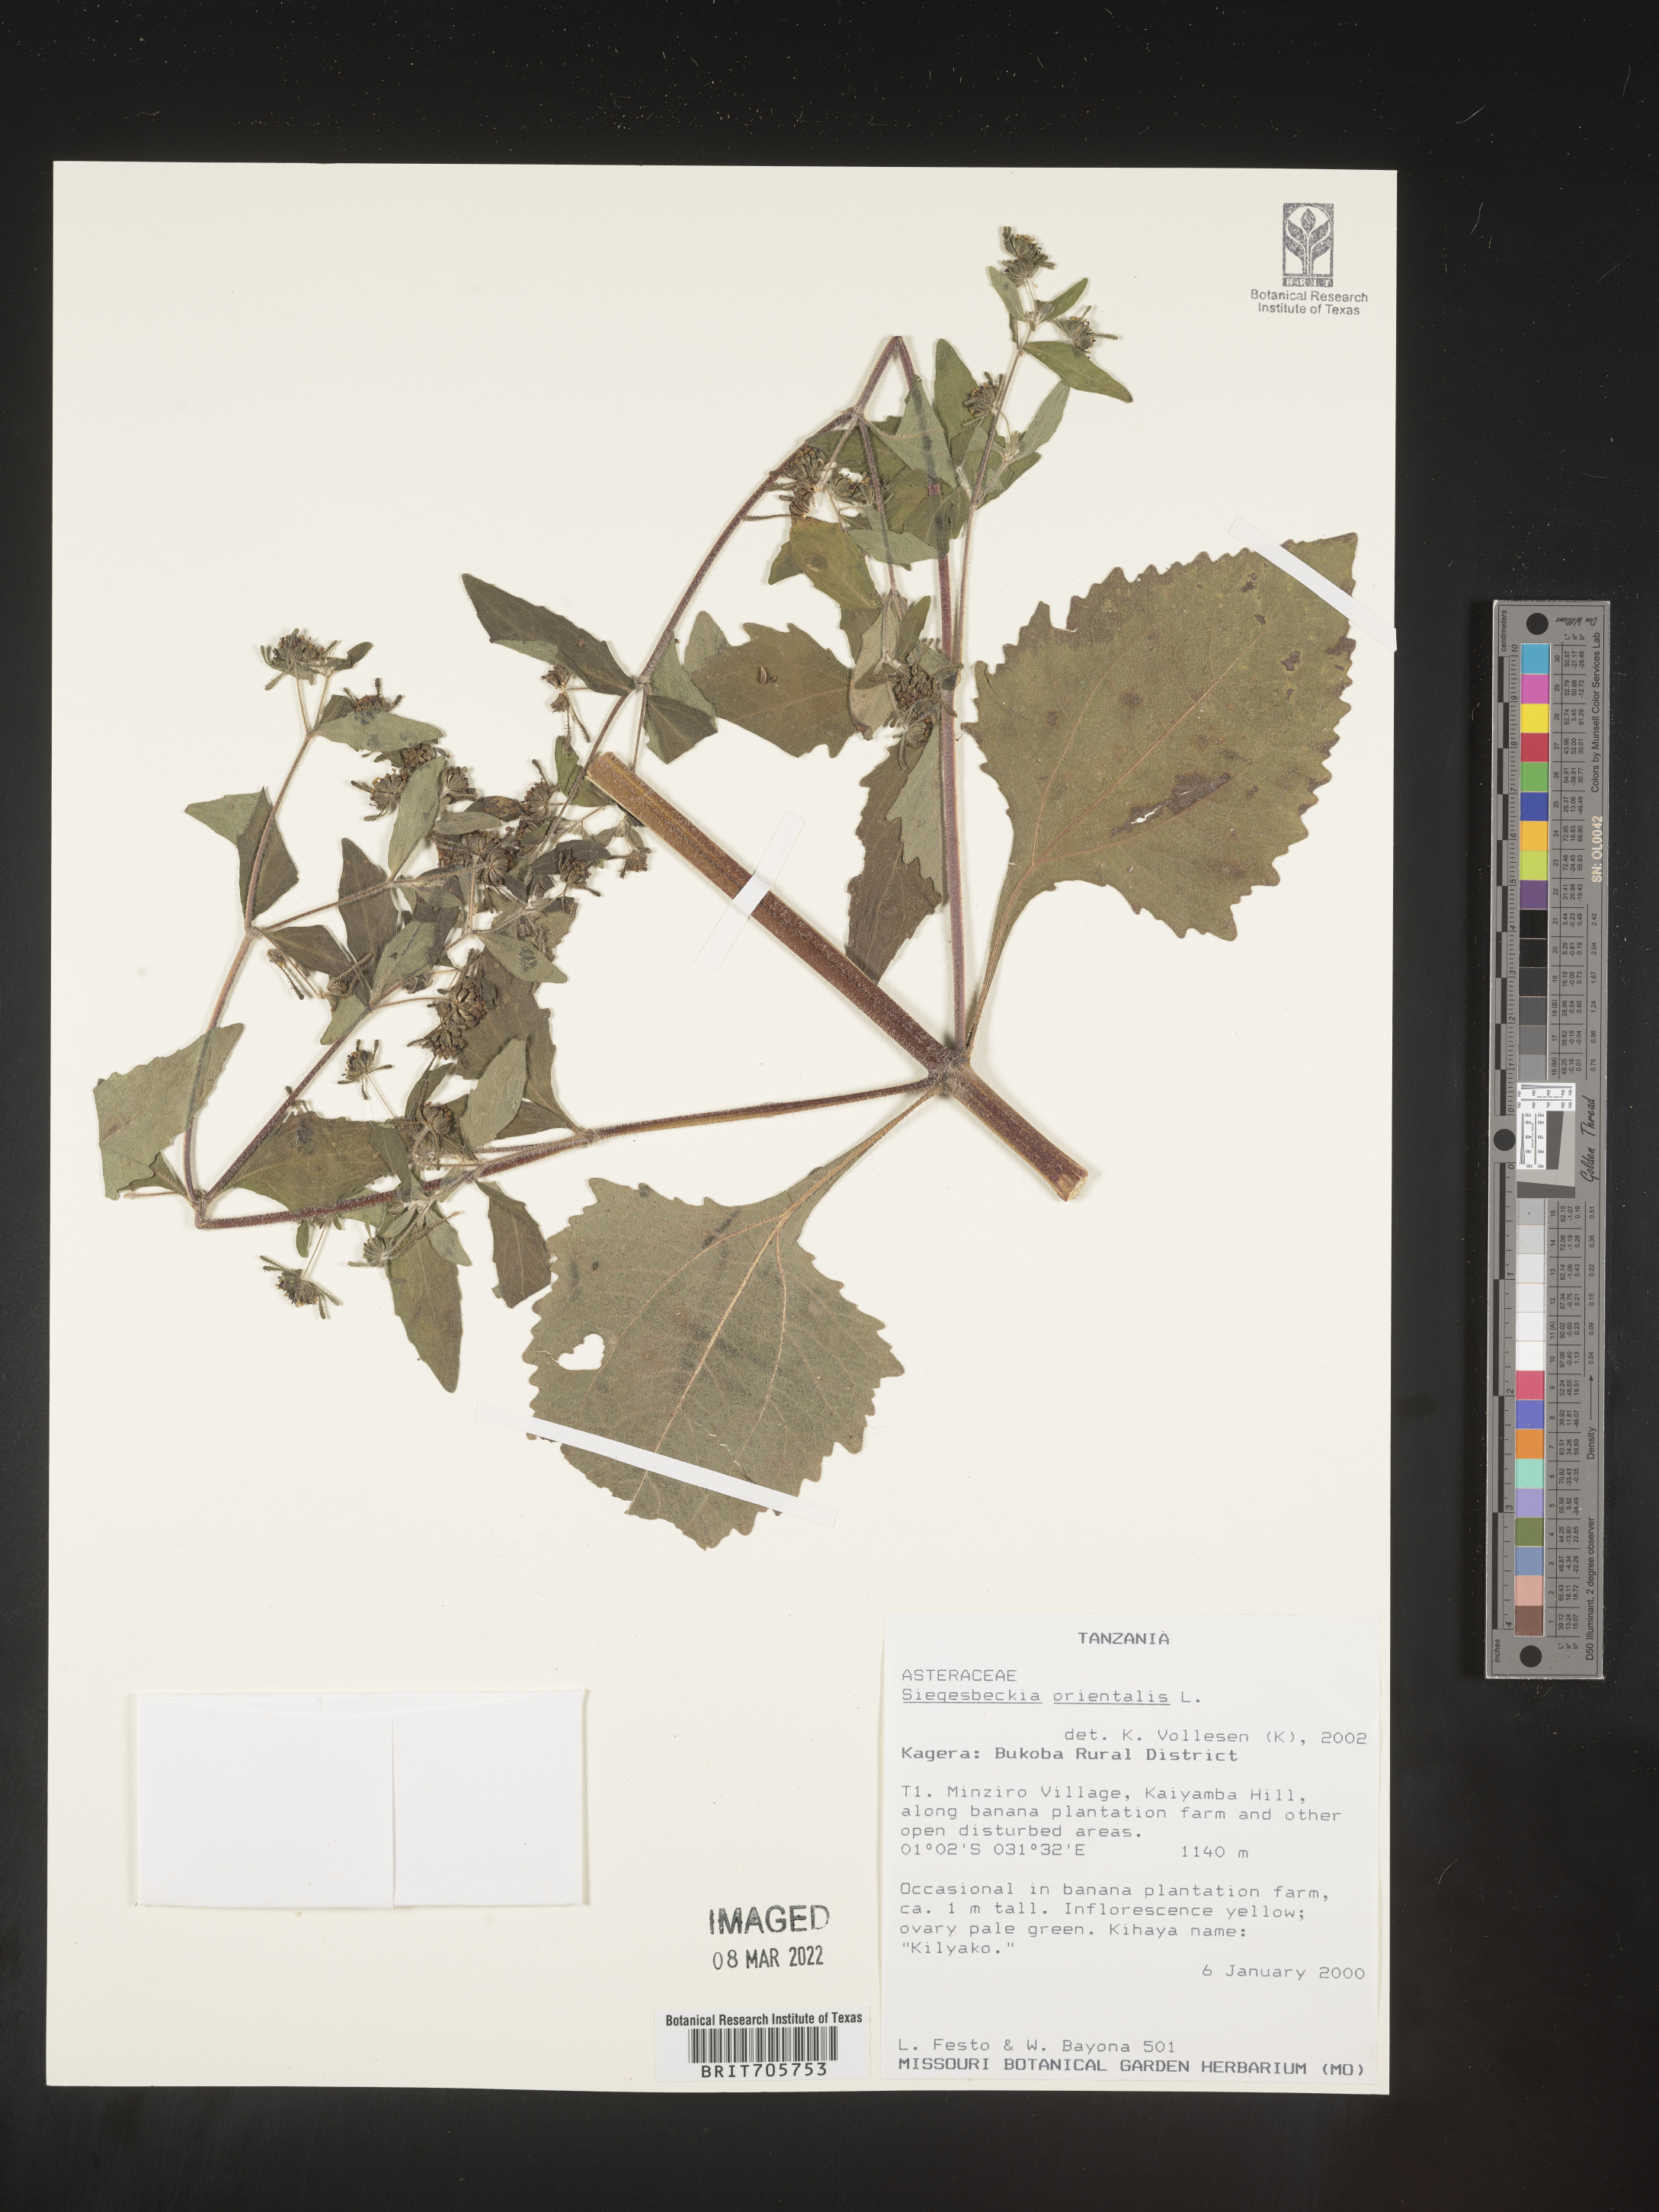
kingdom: Plantae
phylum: Tracheophyta
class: Magnoliopsida
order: Asterales
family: Asteraceae
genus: Siegesbeckia
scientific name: Siegesbeckia
